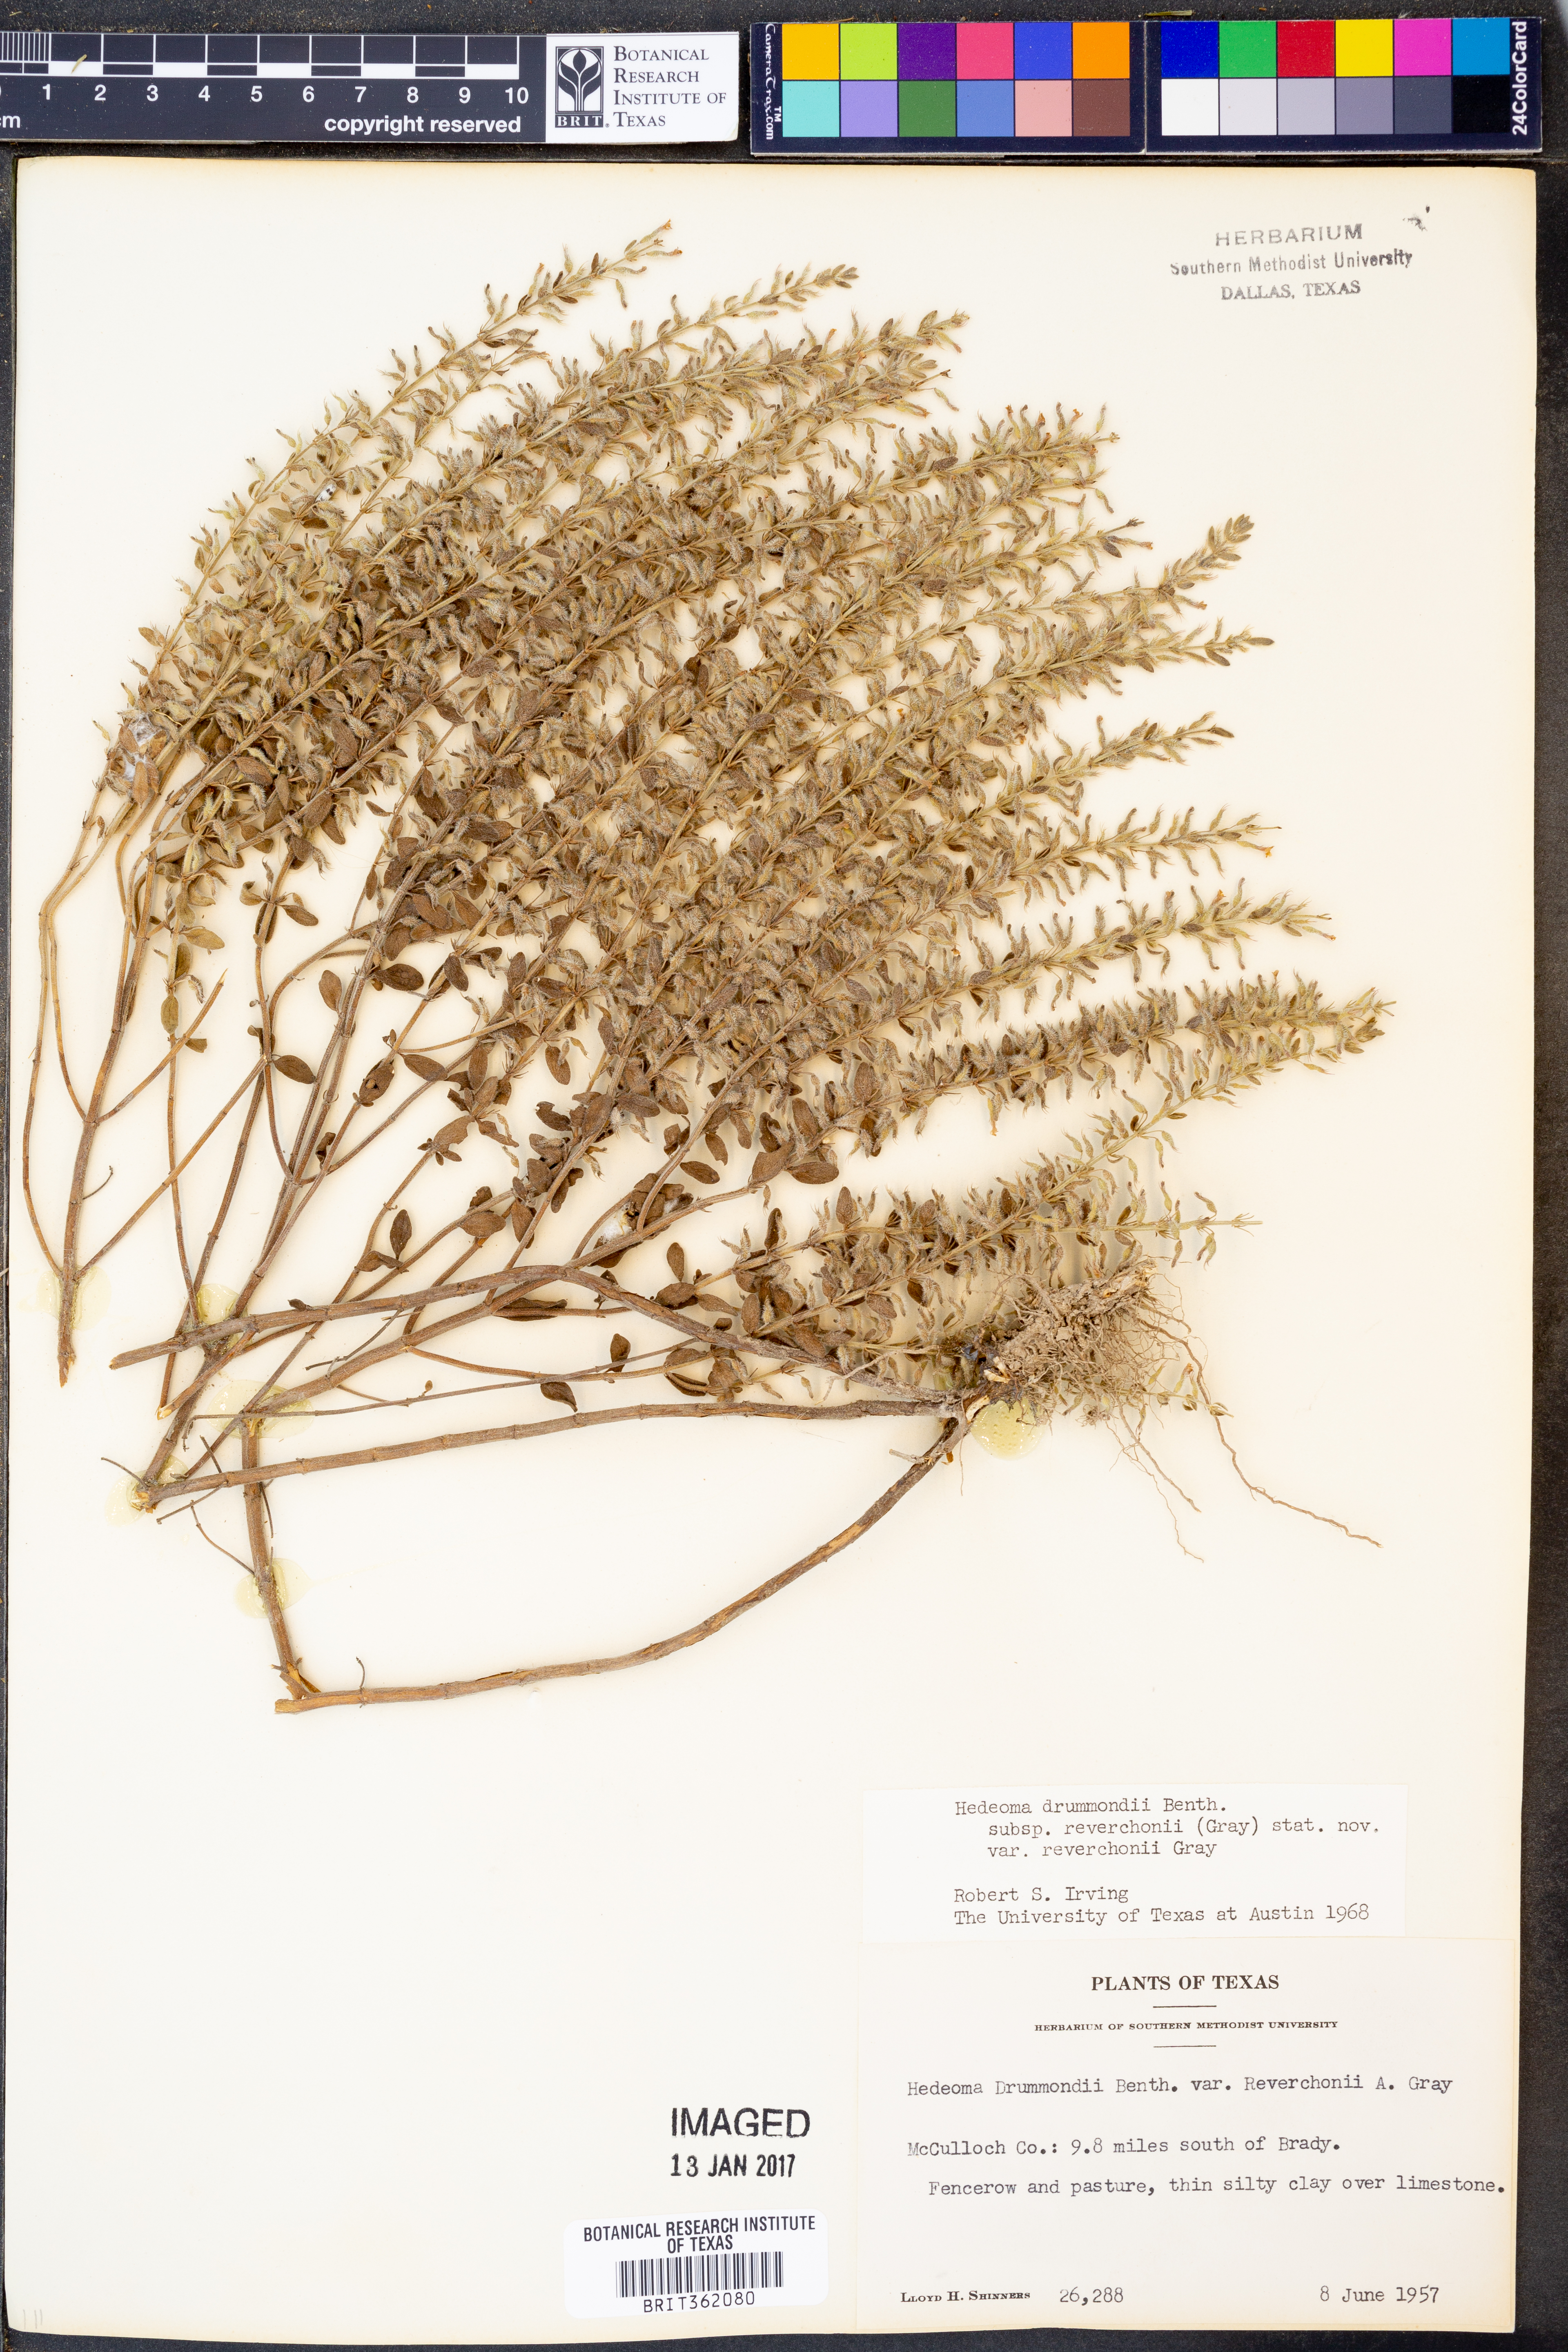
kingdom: Plantae
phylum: Tracheophyta
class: Magnoliopsida
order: Lamiales
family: Lamiaceae
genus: Hedeoma
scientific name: Hedeoma reverchonii
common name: Reverchon's false penny-royal
